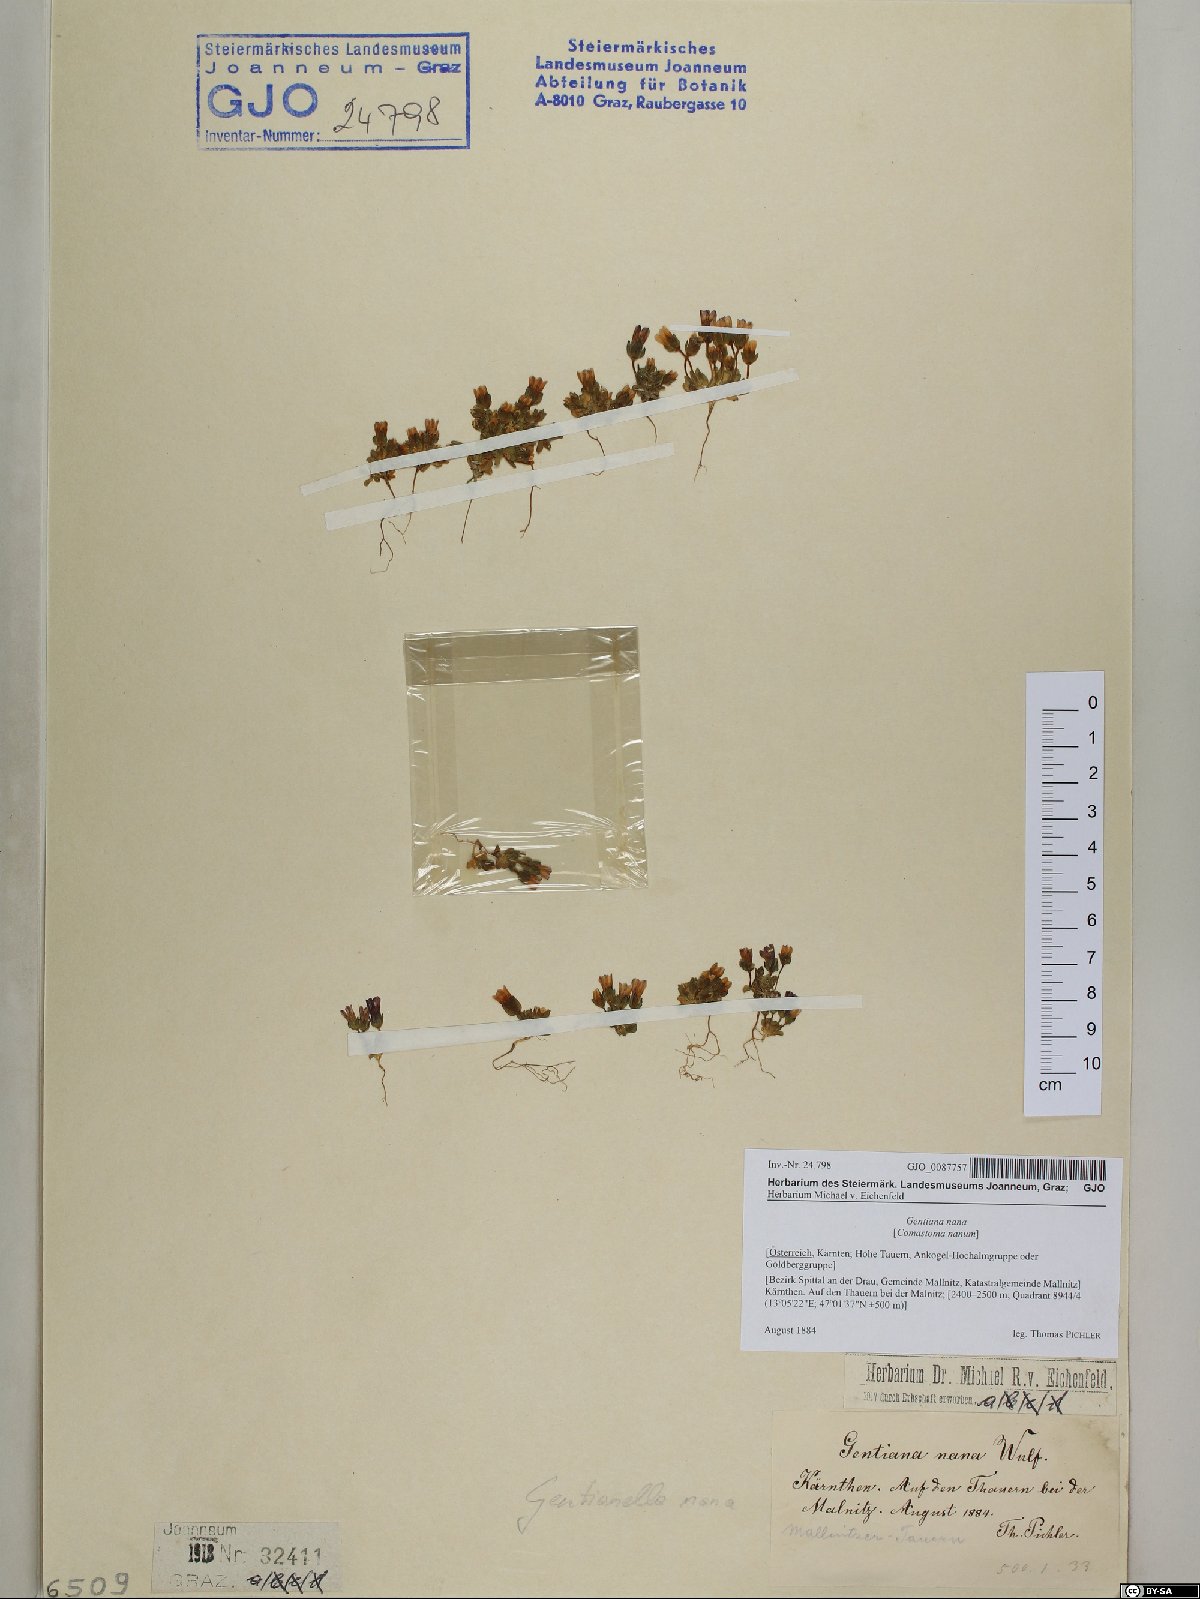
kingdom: Plantae
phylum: Tracheophyta
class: Magnoliopsida
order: Gentianales
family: Gentianaceae
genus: Comastoma
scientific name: Comastoma nanum
